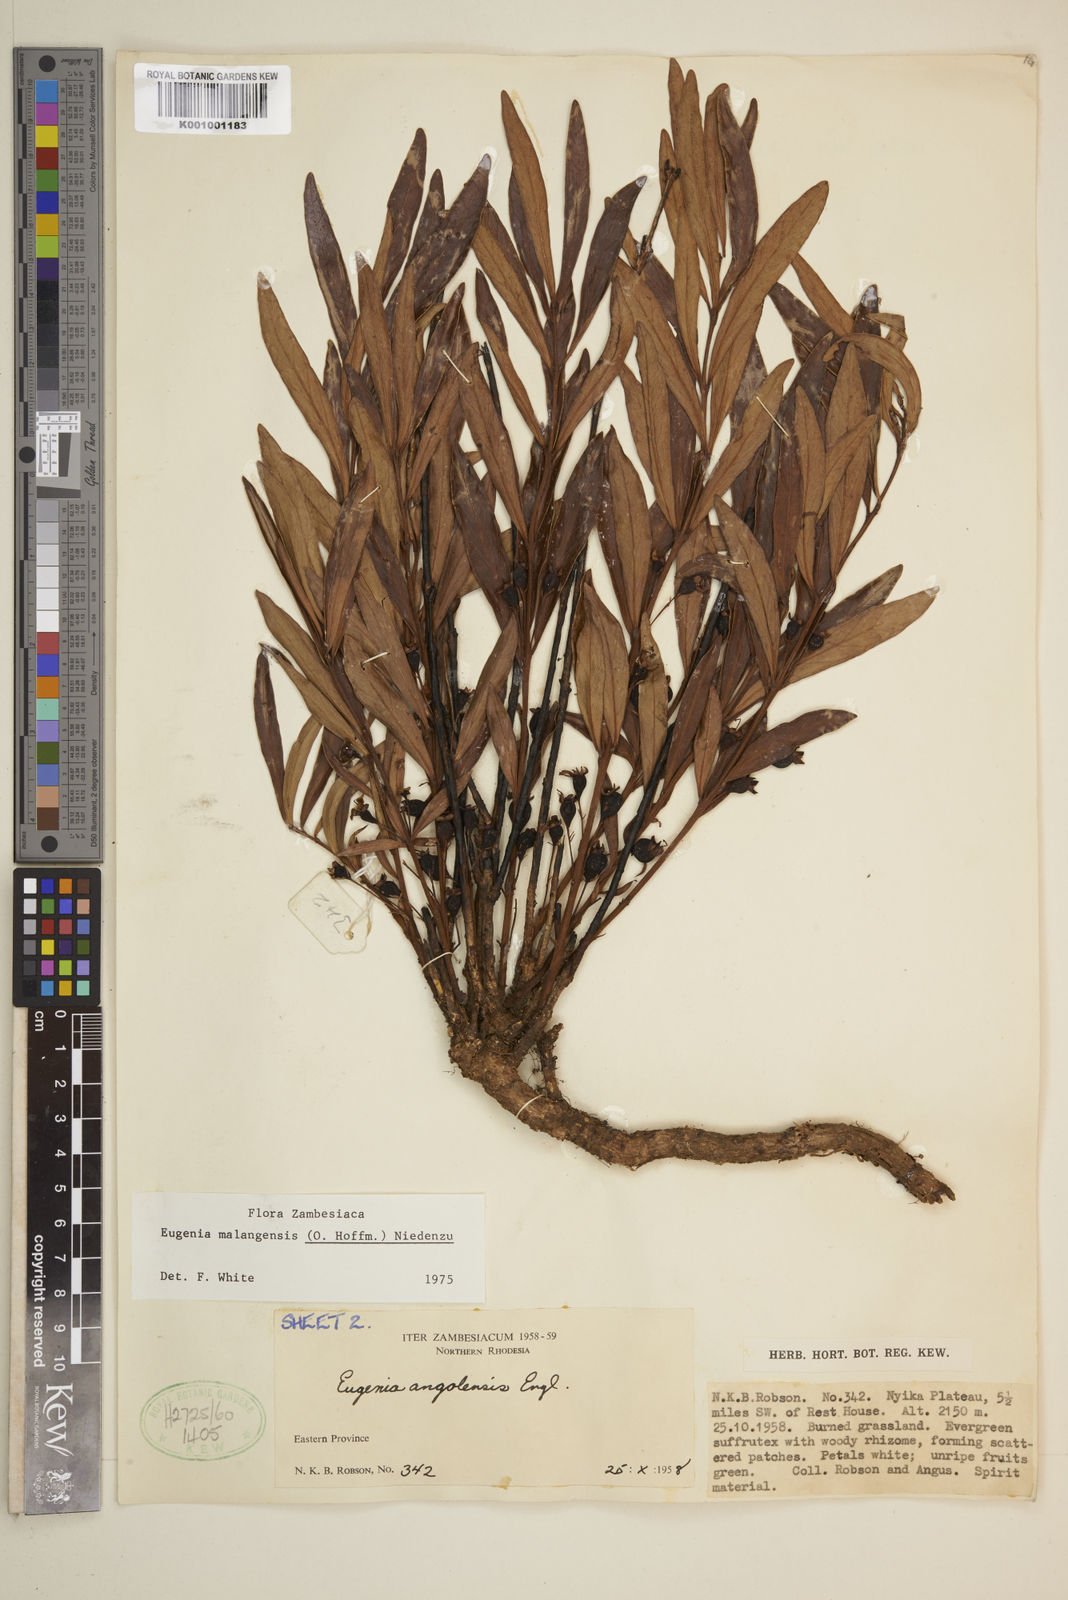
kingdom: Plantae
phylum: Tracheophyta
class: Magnoliopsida
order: Myrtales
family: Myrtaceae
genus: Eugenia
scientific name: Eugenia malangensis
